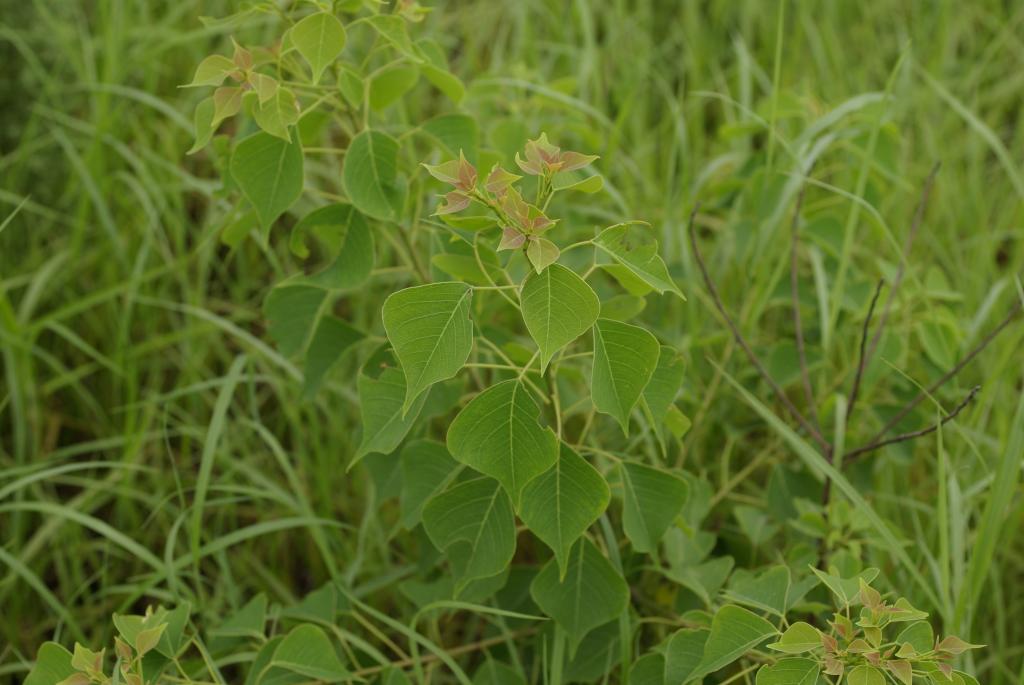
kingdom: Plantae
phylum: Tracheophyta
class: Magnoliopsida
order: Malpighiales
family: Euphorbiaceae
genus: Triadica
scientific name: Triadica sebifera
